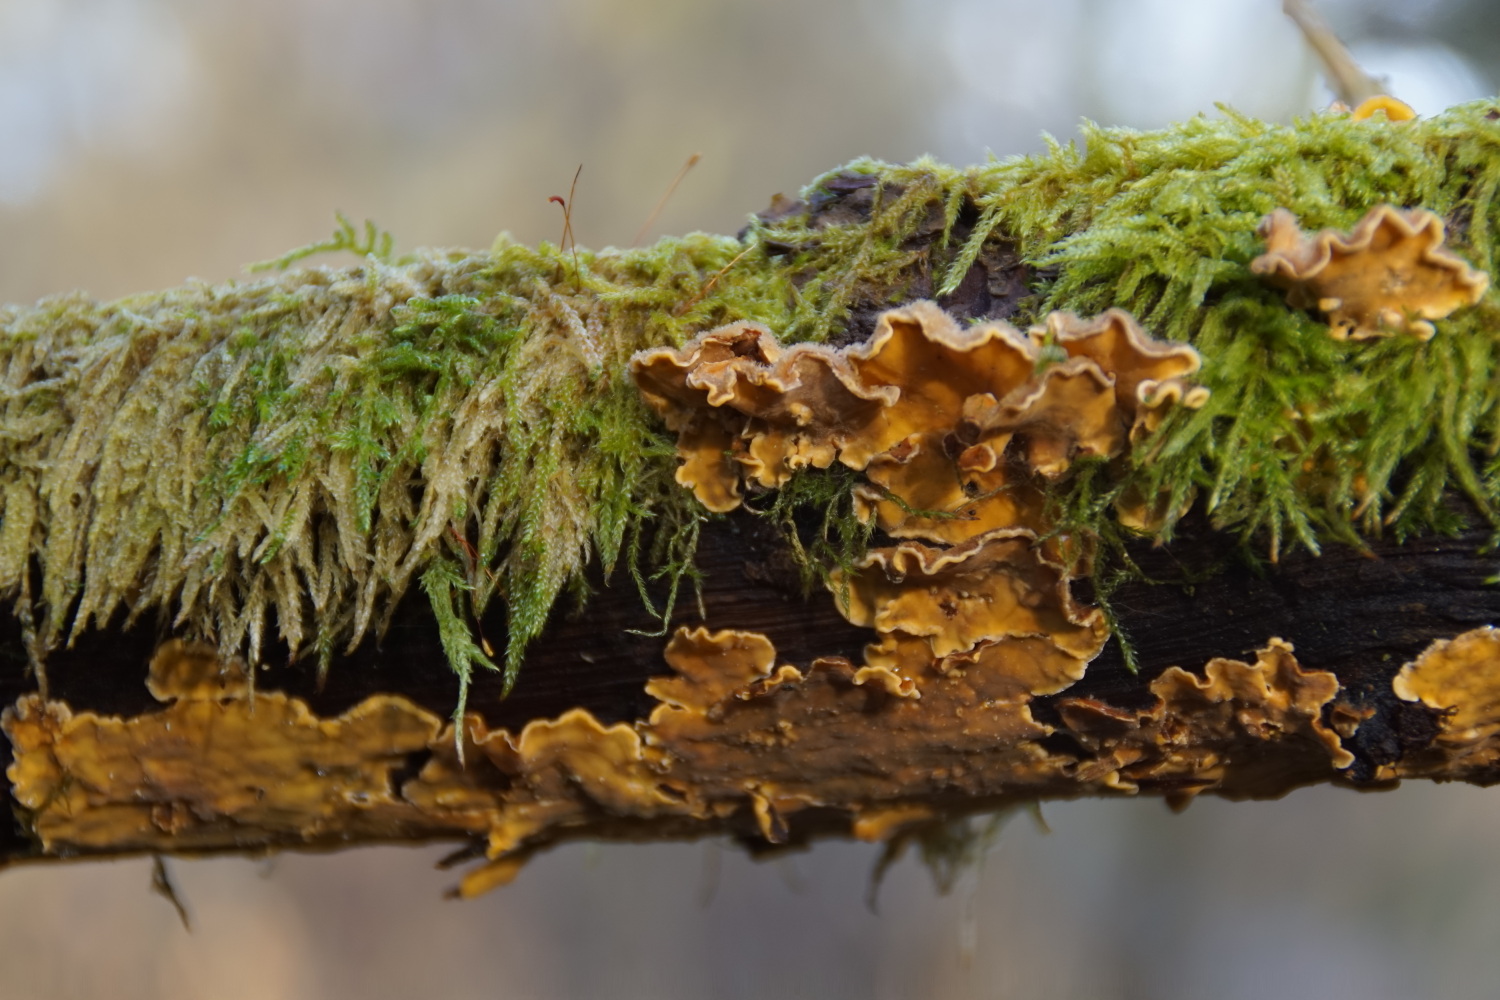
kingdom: Fungi
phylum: Basidiomycota
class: Agaricomycetes
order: Russulales
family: Stereaceae
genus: Stereum
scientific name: Stereum hirsutum
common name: håret lædersvamp
